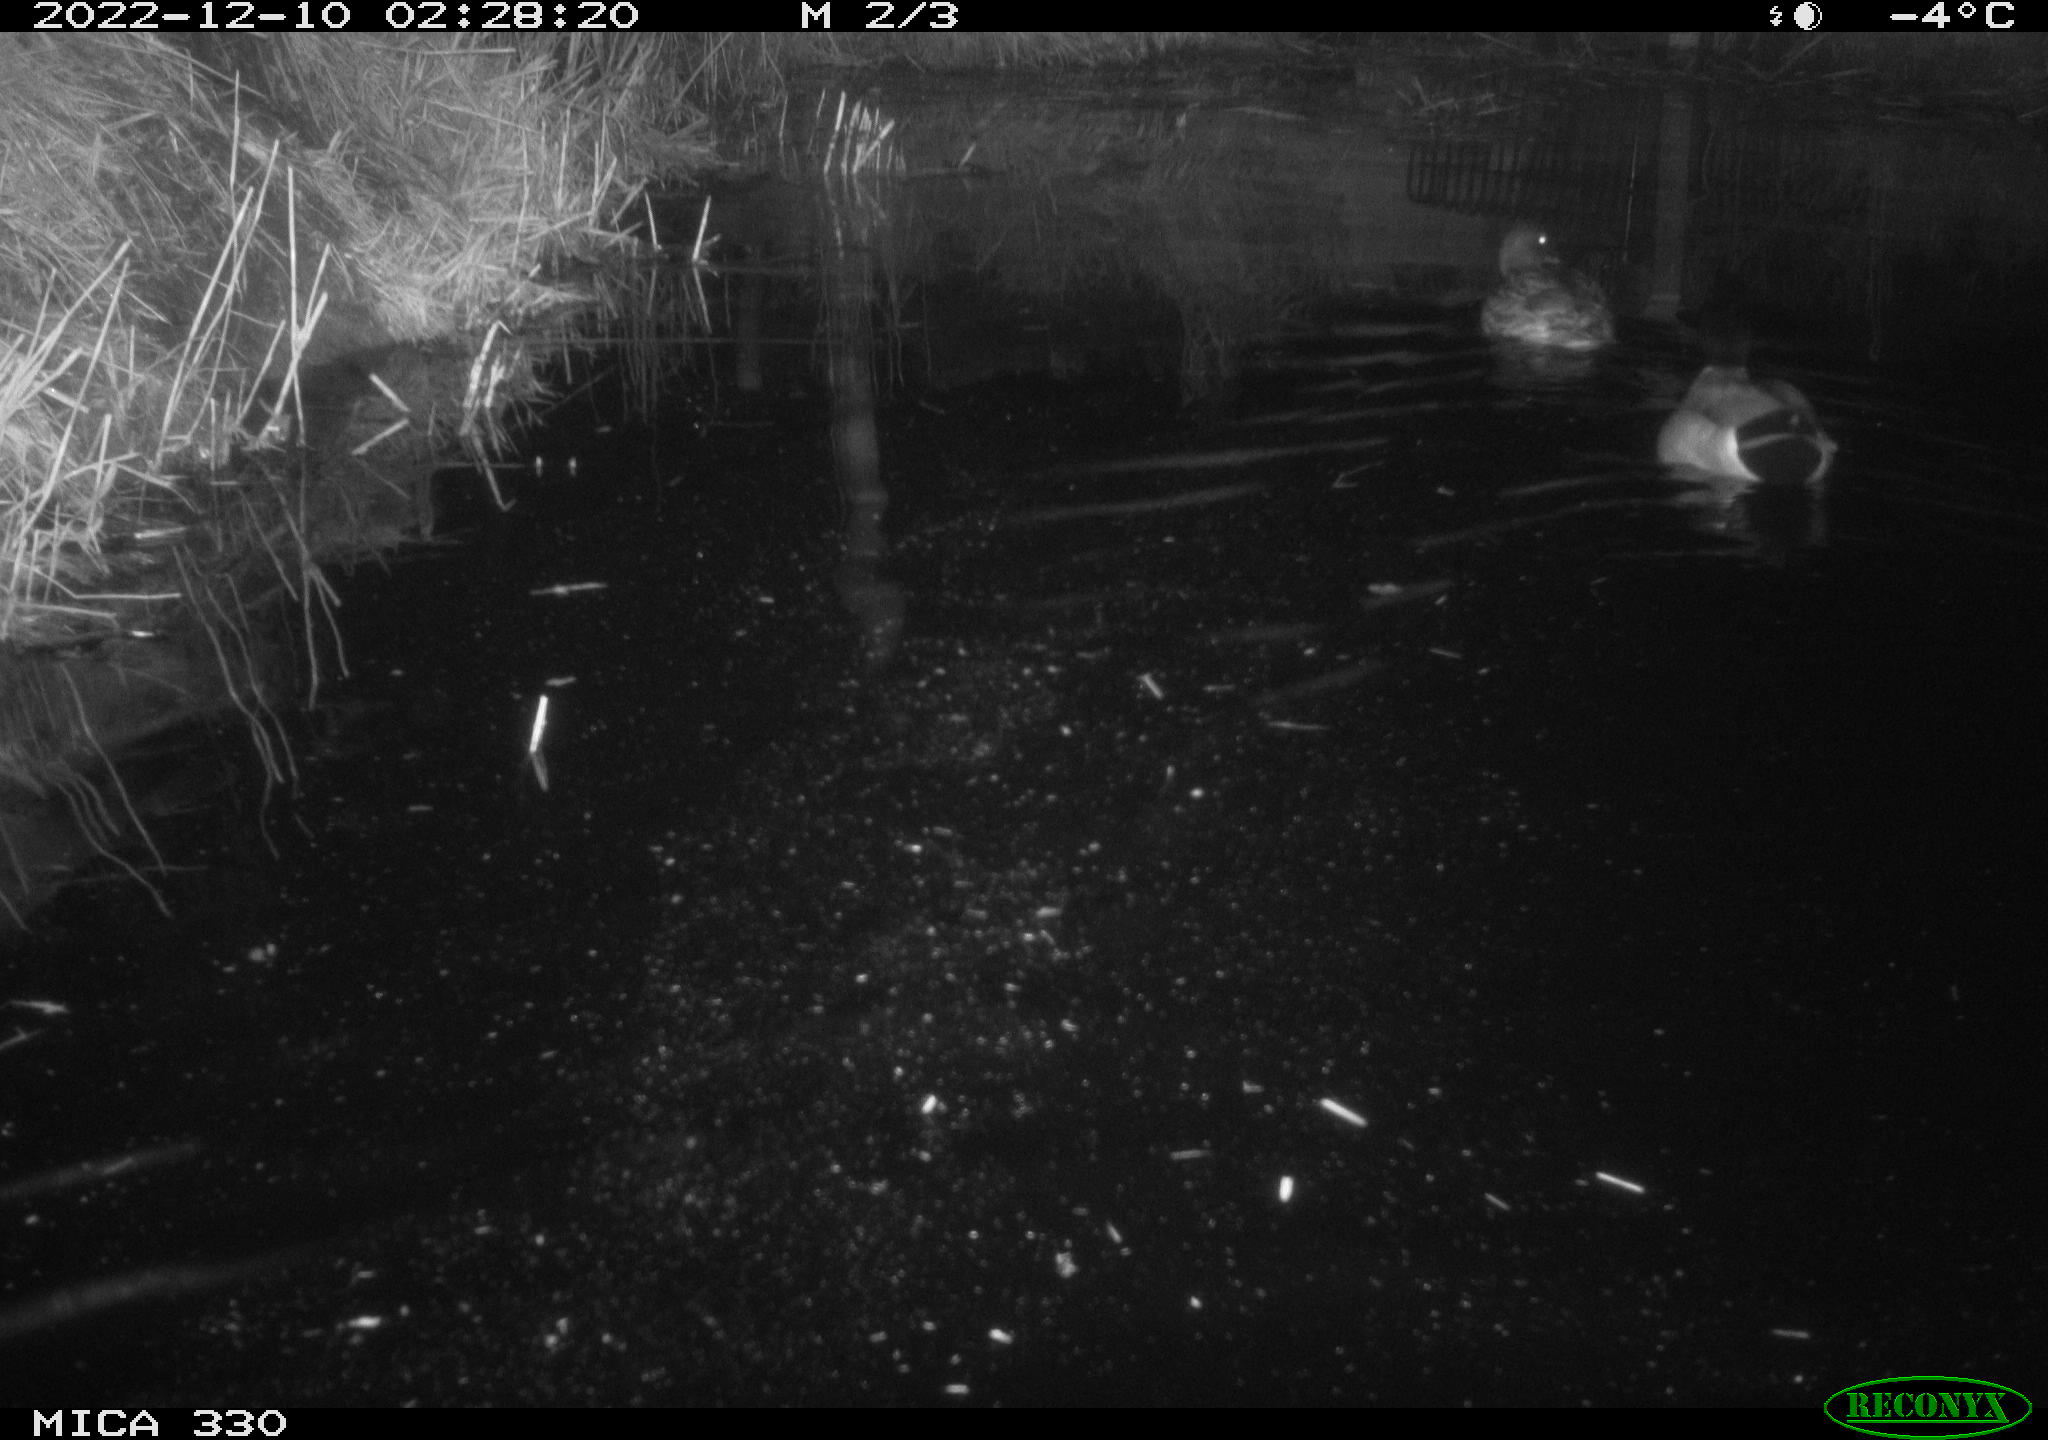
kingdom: Animalia
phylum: Chordata
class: Aves
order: Anseriformes
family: Anatidae
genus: Anas
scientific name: Anas
